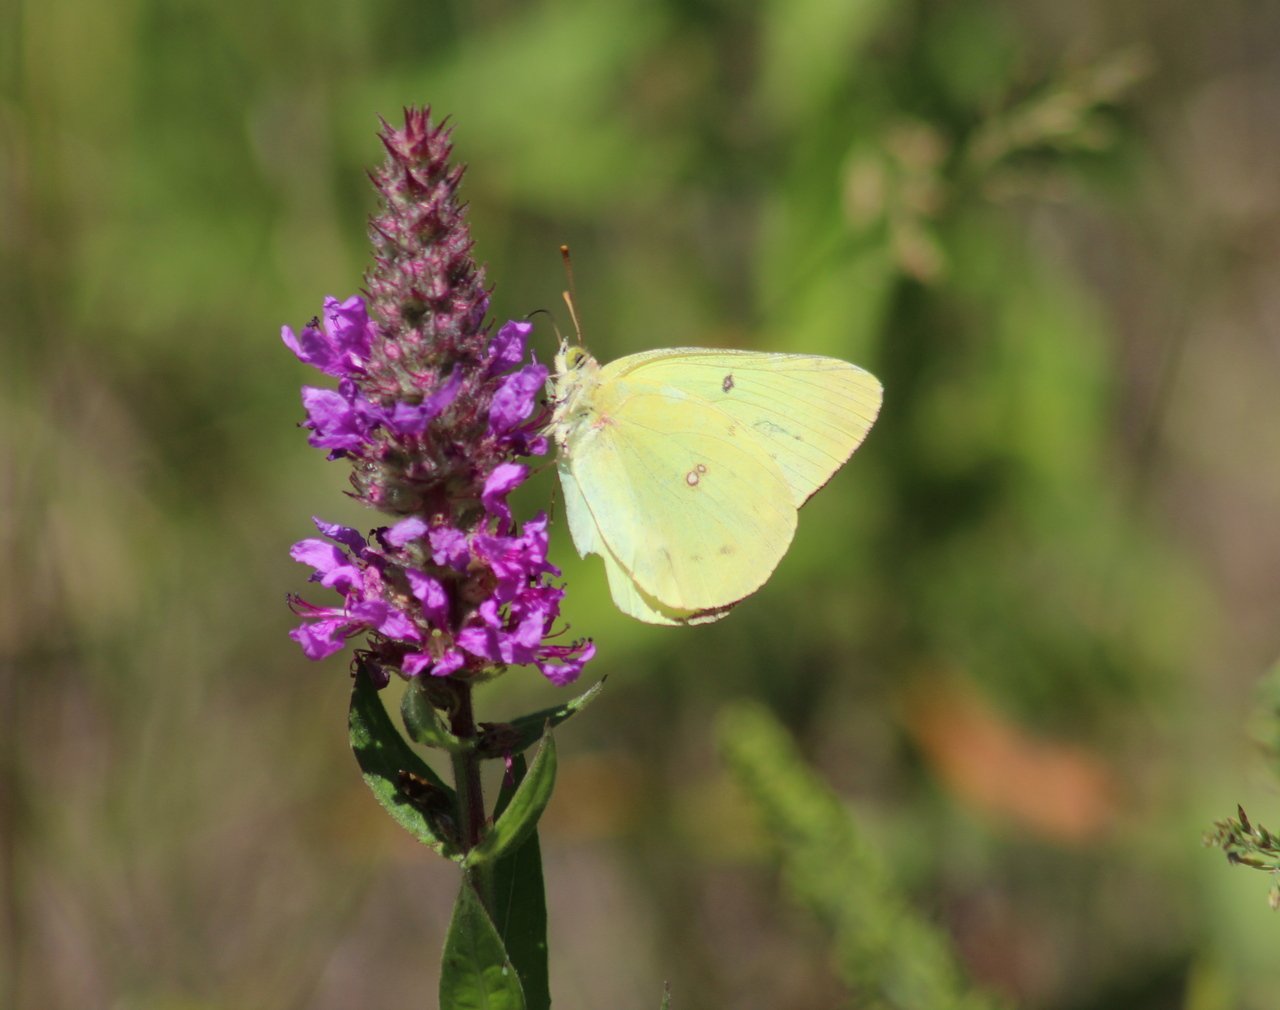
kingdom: Animalia
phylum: Arthropoda
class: Insecta
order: Lepidoptera
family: Pieridae
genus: Colias
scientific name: Colias philodice
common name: Clouded Sulphur
